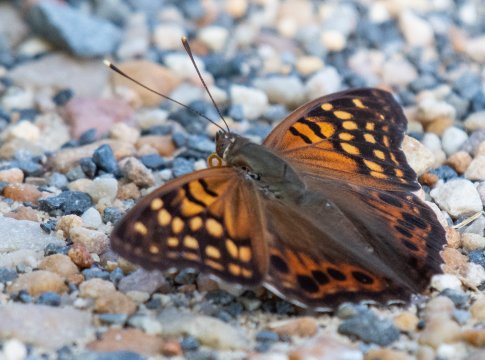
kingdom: Animalia
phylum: Arthropoda
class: Insecta
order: Lepidoptera
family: Nymphalidae
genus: Asterocampa
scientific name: Asterocampa clyton
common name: Tawny Emperor
